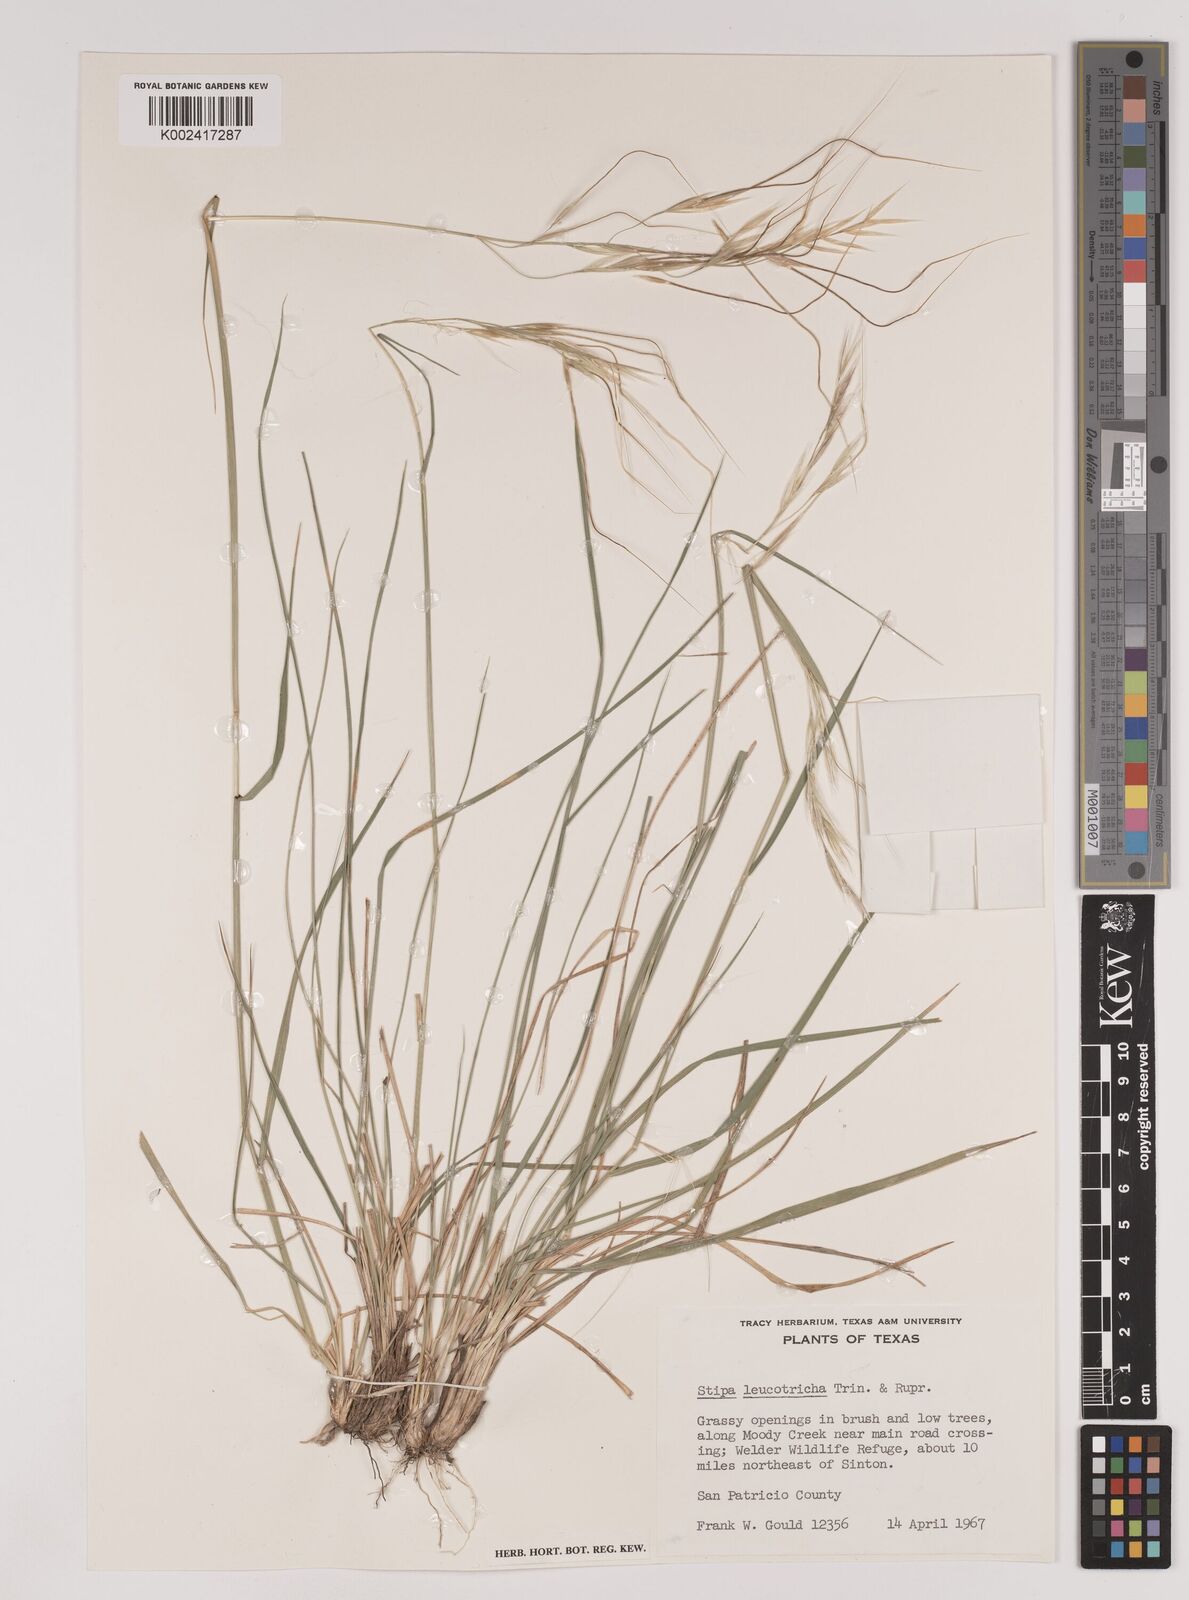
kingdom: Plantae
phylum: Tracheophyta
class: Liliopsida
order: Poales
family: Poaceae
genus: Nassella
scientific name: Nassella leucotricha
